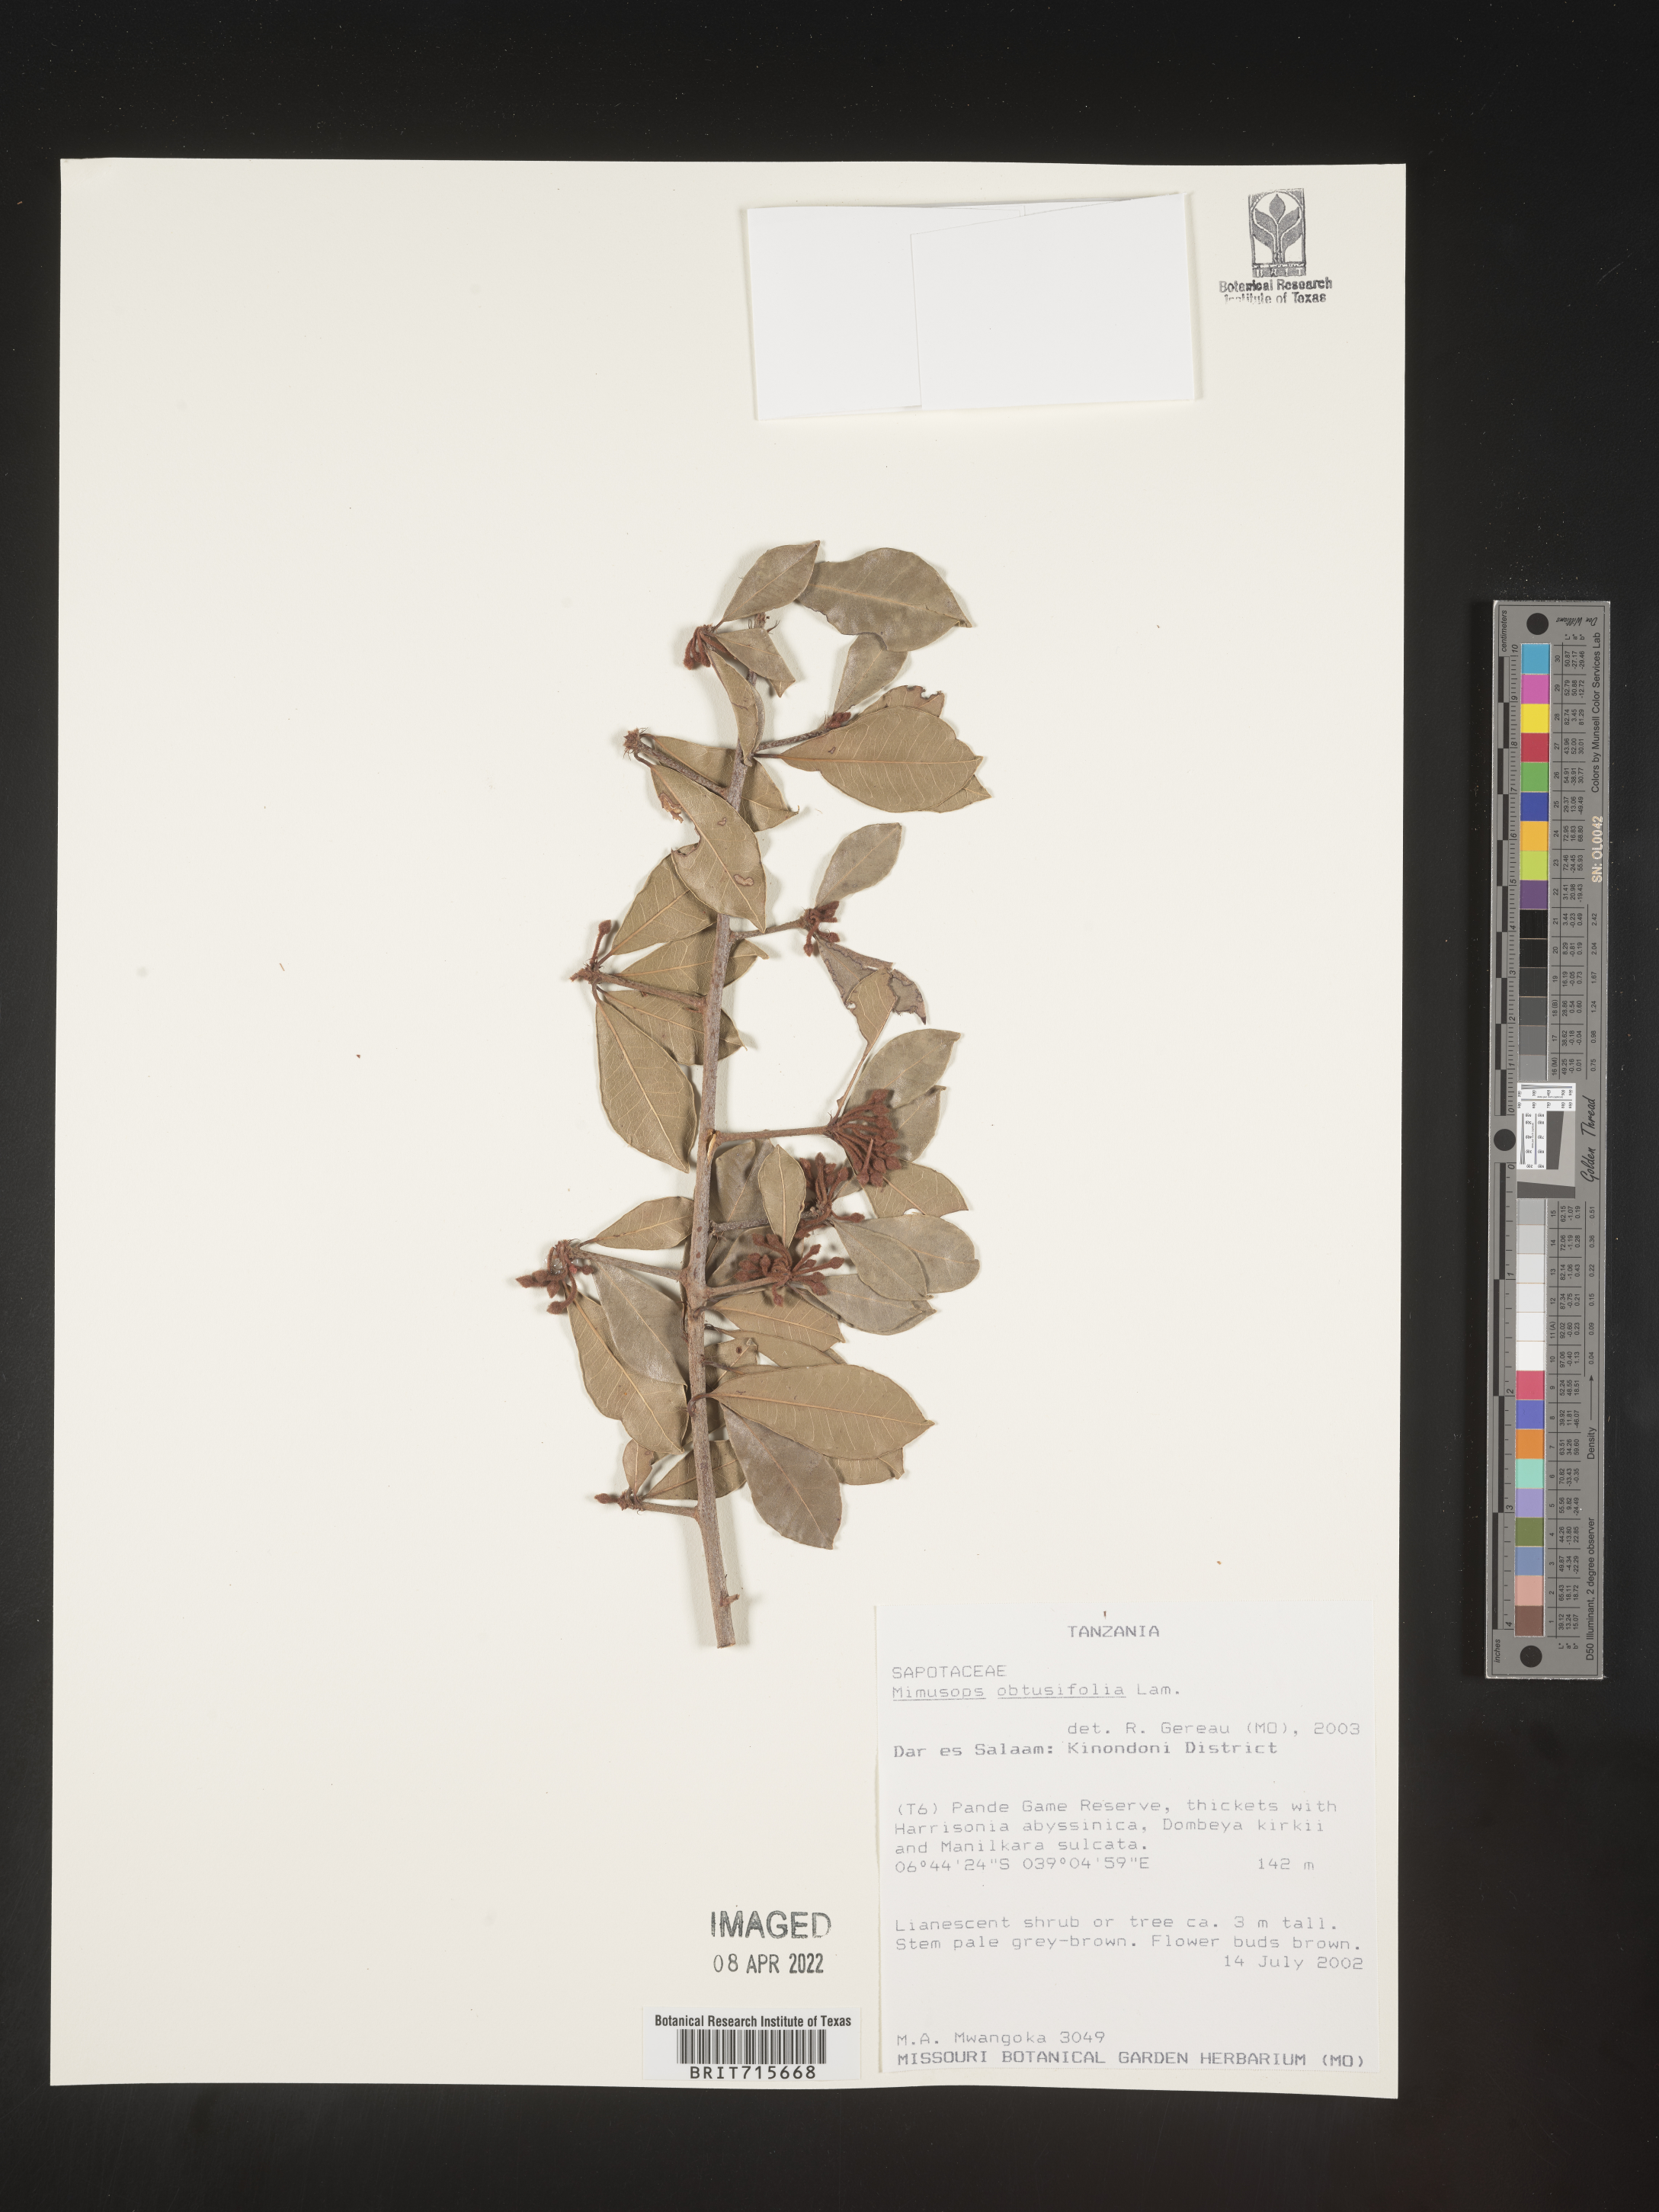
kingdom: Plantae
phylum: Tracheophyta
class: Magnoliopsida
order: Ericales
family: Sapotaceae
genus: Mimusops
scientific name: Mimusops
